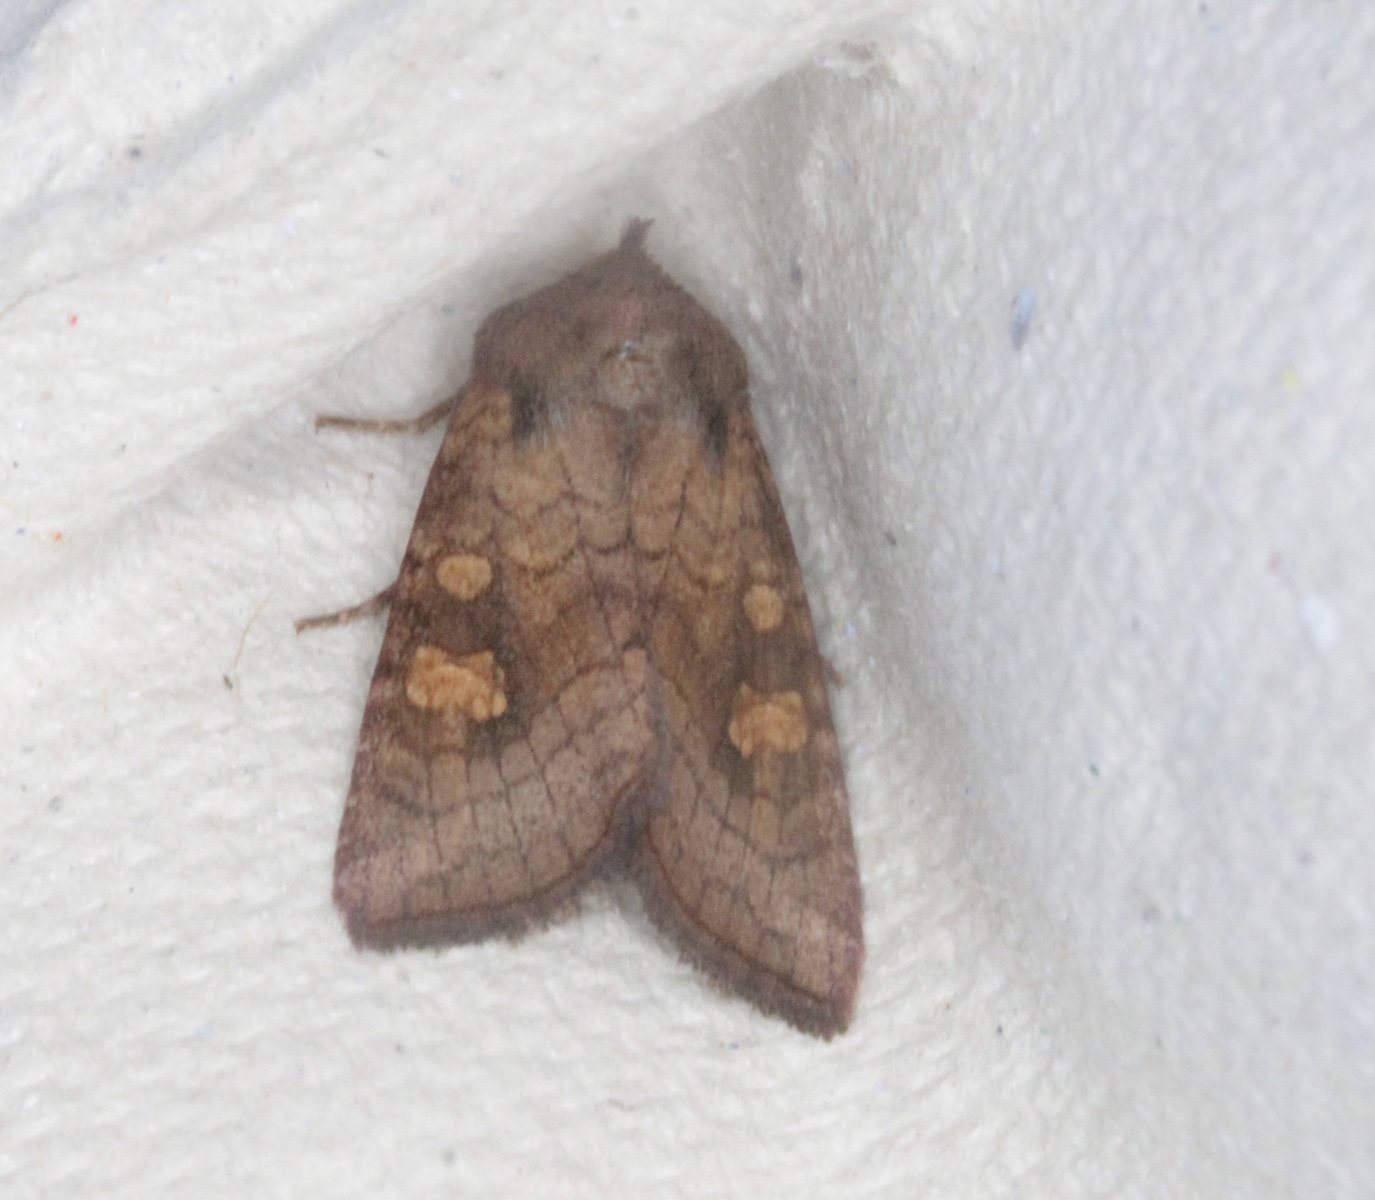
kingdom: Animalia
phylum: Arthropoda
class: Insecta
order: Lepidoptera
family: Noctuidae
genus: Amphipoea
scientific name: Amphipoea fucosa
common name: Saltern ear
